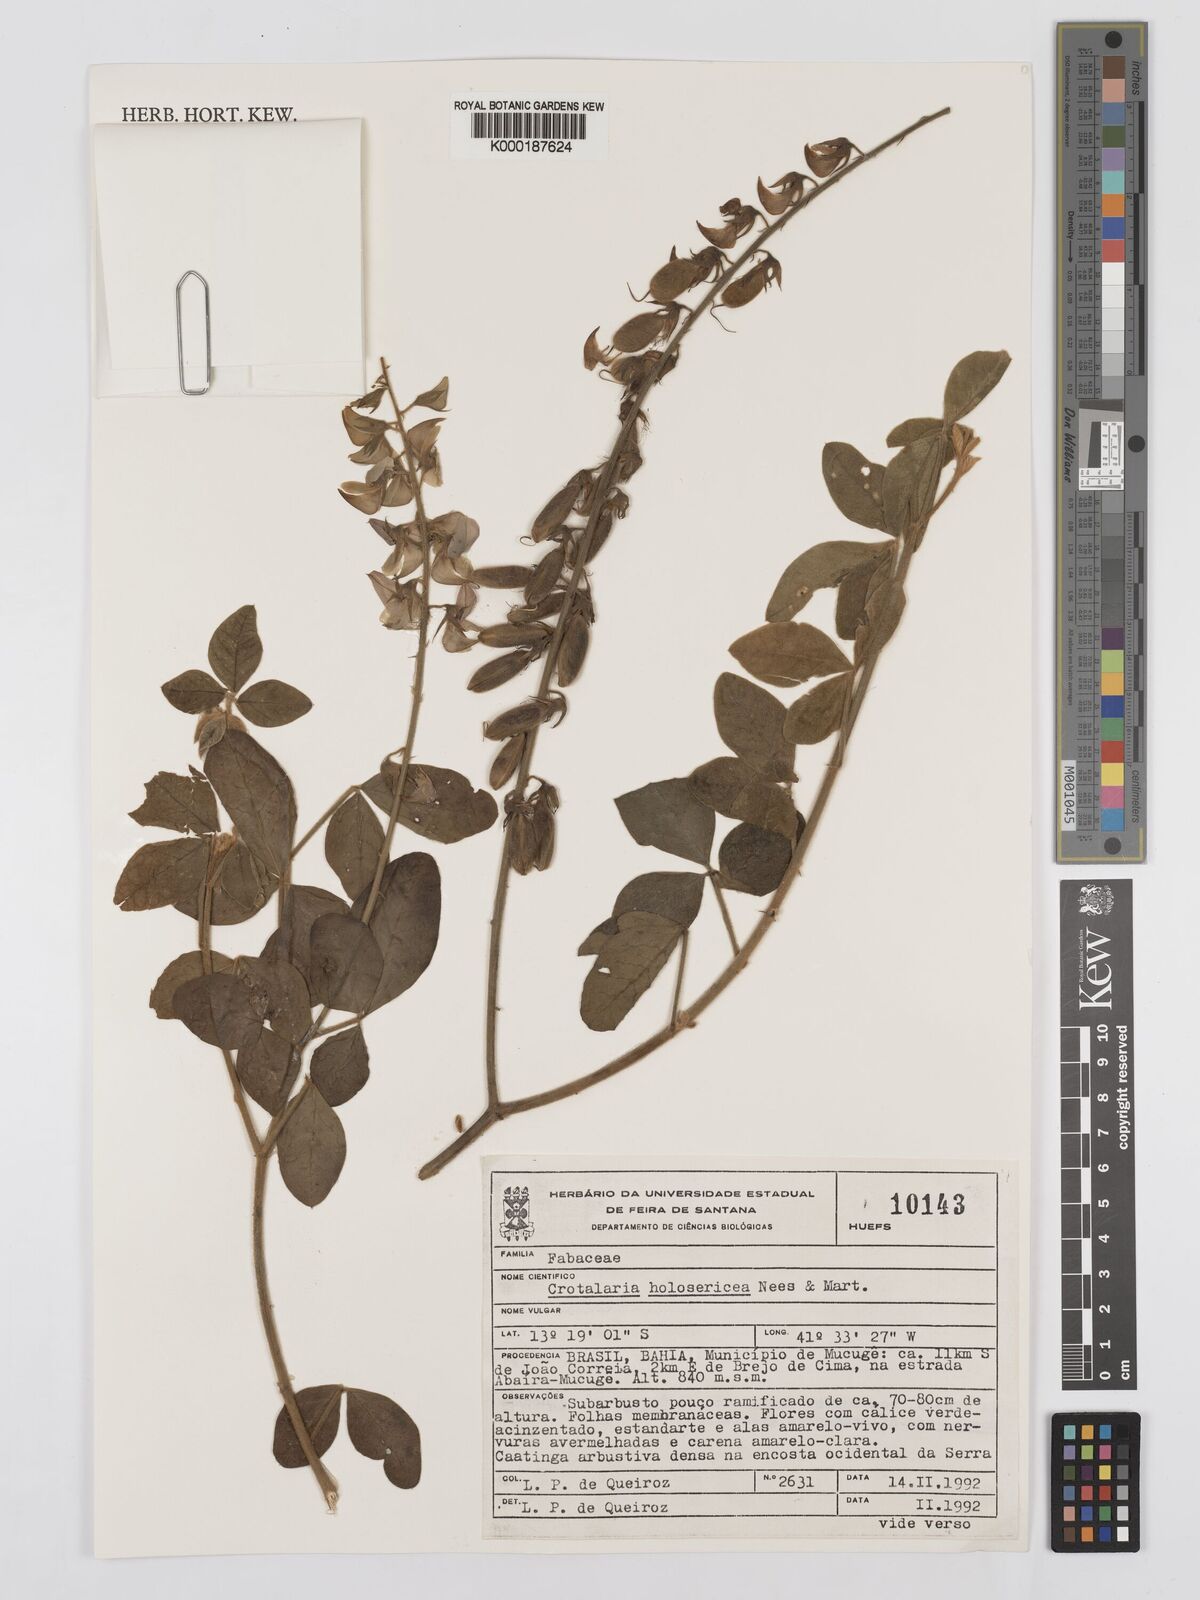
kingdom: Plantae
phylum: Tracheophyta
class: Magnoliopsida
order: Fabales
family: Fabaceae
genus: Crotalaria
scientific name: Crotalaria holosericea
